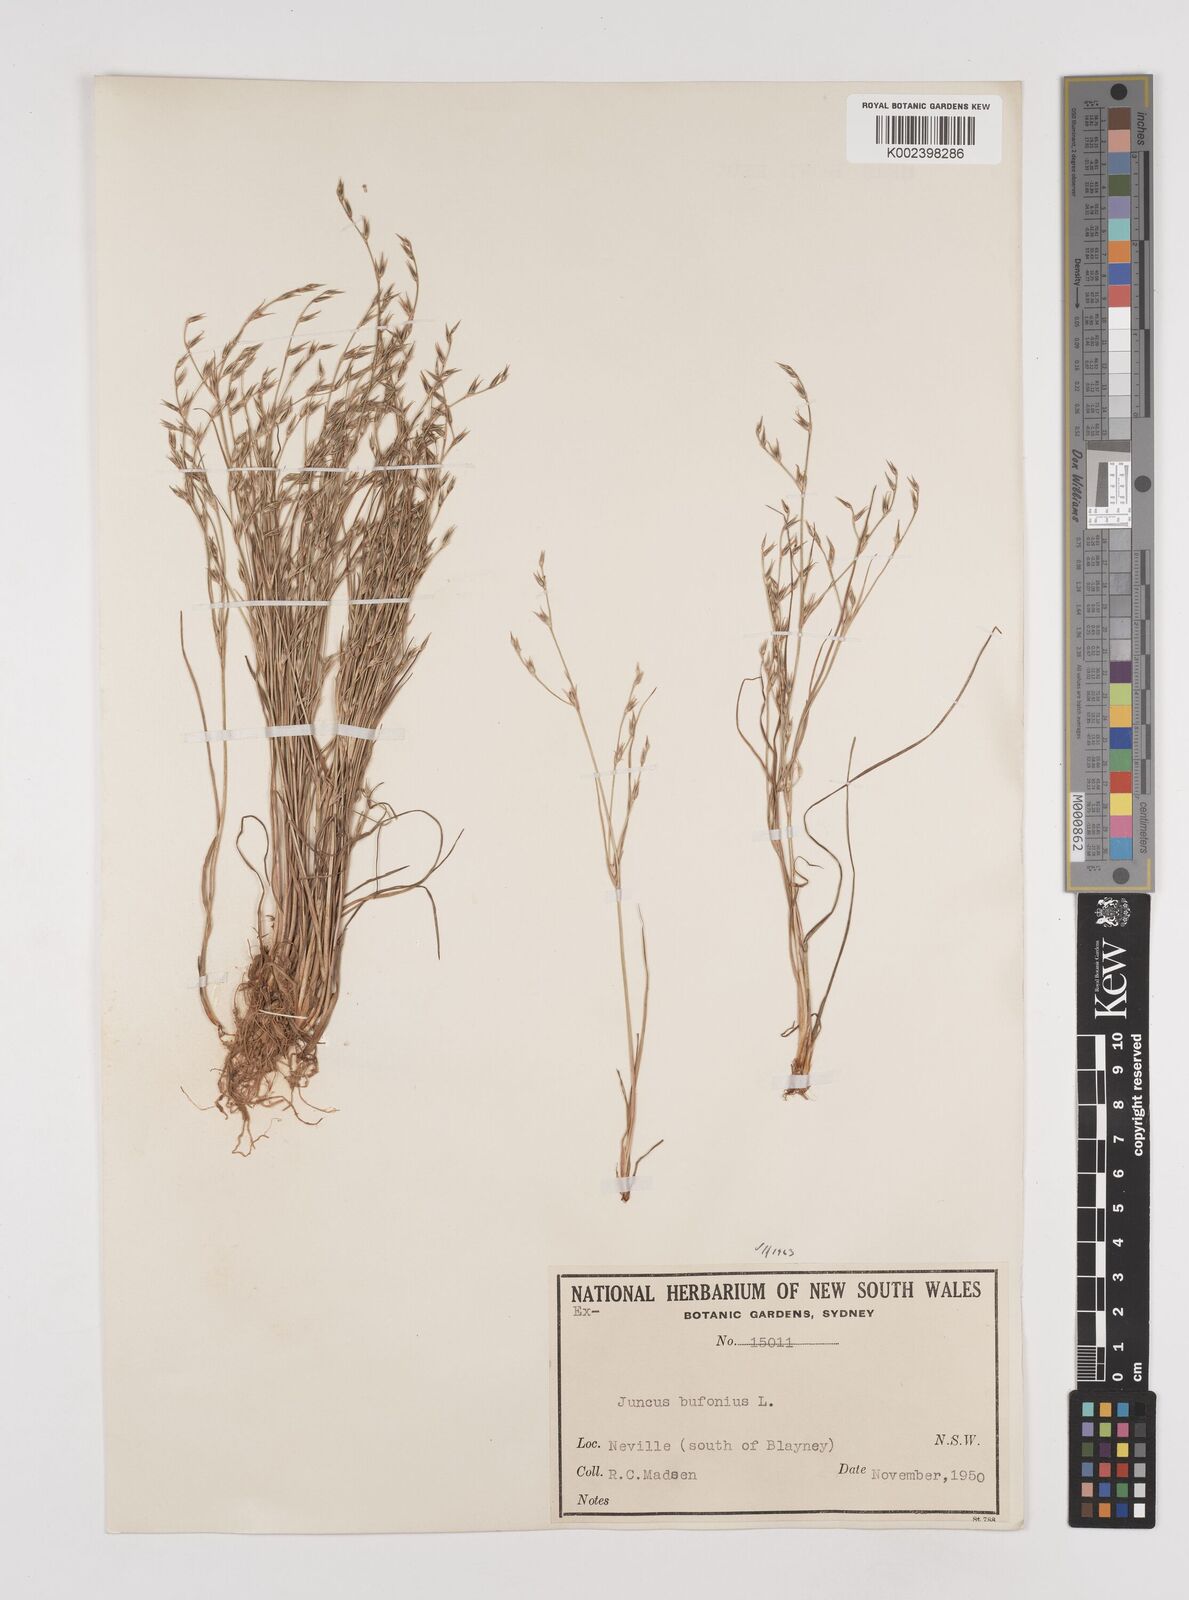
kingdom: Plantae
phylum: Tracheophyta
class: Liliopsida
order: Poales
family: Juncaceae
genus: Juncus
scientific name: Juncus ranarius
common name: Frog rush
